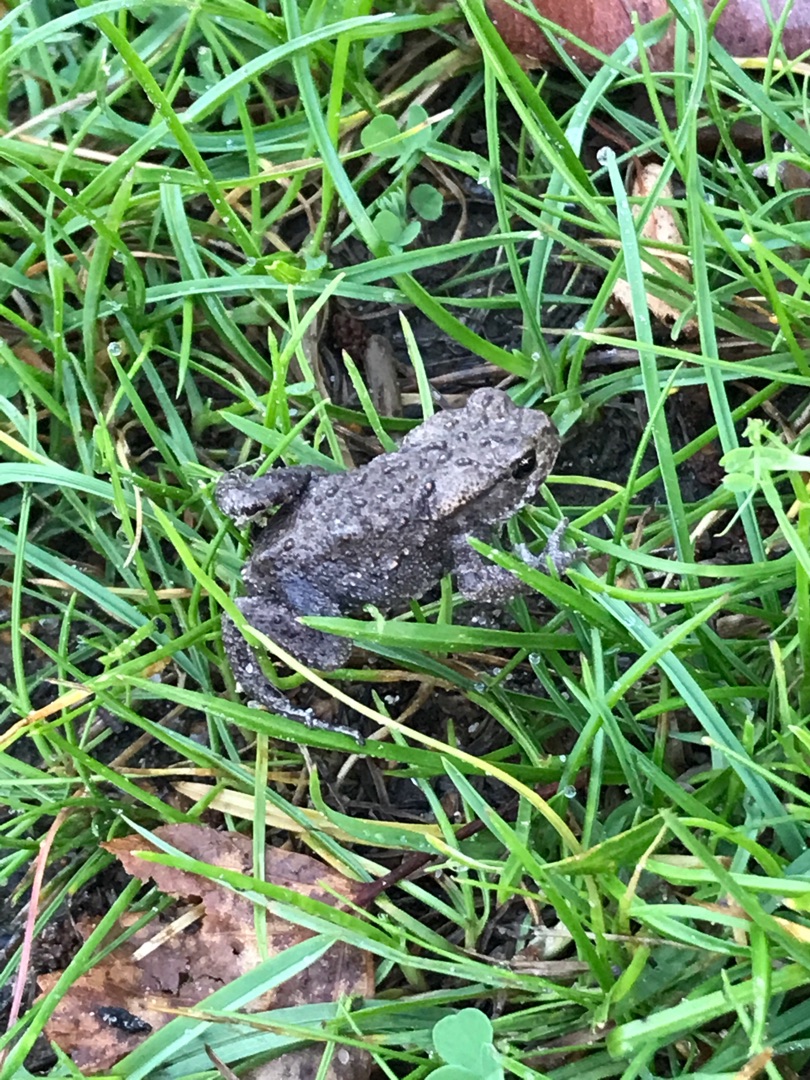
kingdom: Animalia
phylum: Chordata
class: Amphibia
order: Anura
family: Bufonidae
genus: Bufo
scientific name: Bufo bufo
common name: Skrubtudse
